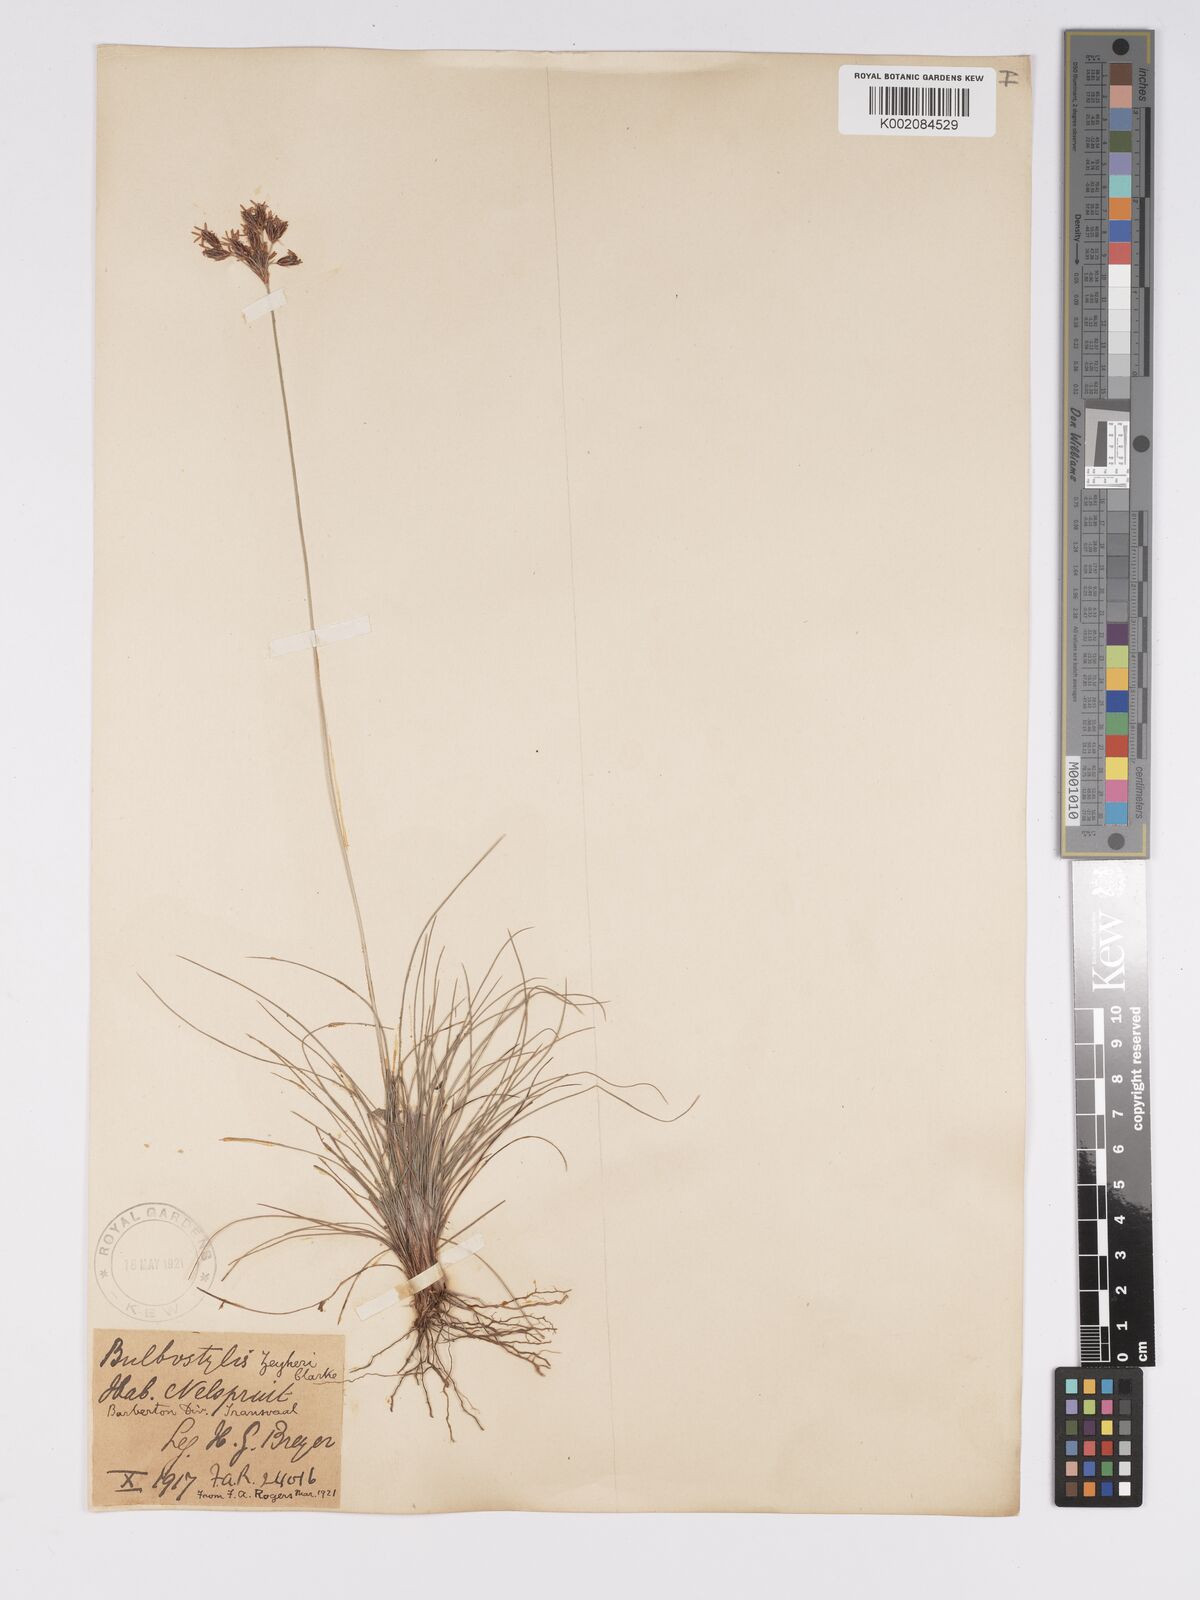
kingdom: Plantae
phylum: Tracheophyta
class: Liliopsida
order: Poales
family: Cyperaceae
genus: Bulbostylis
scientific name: Bulbostylis contexta
